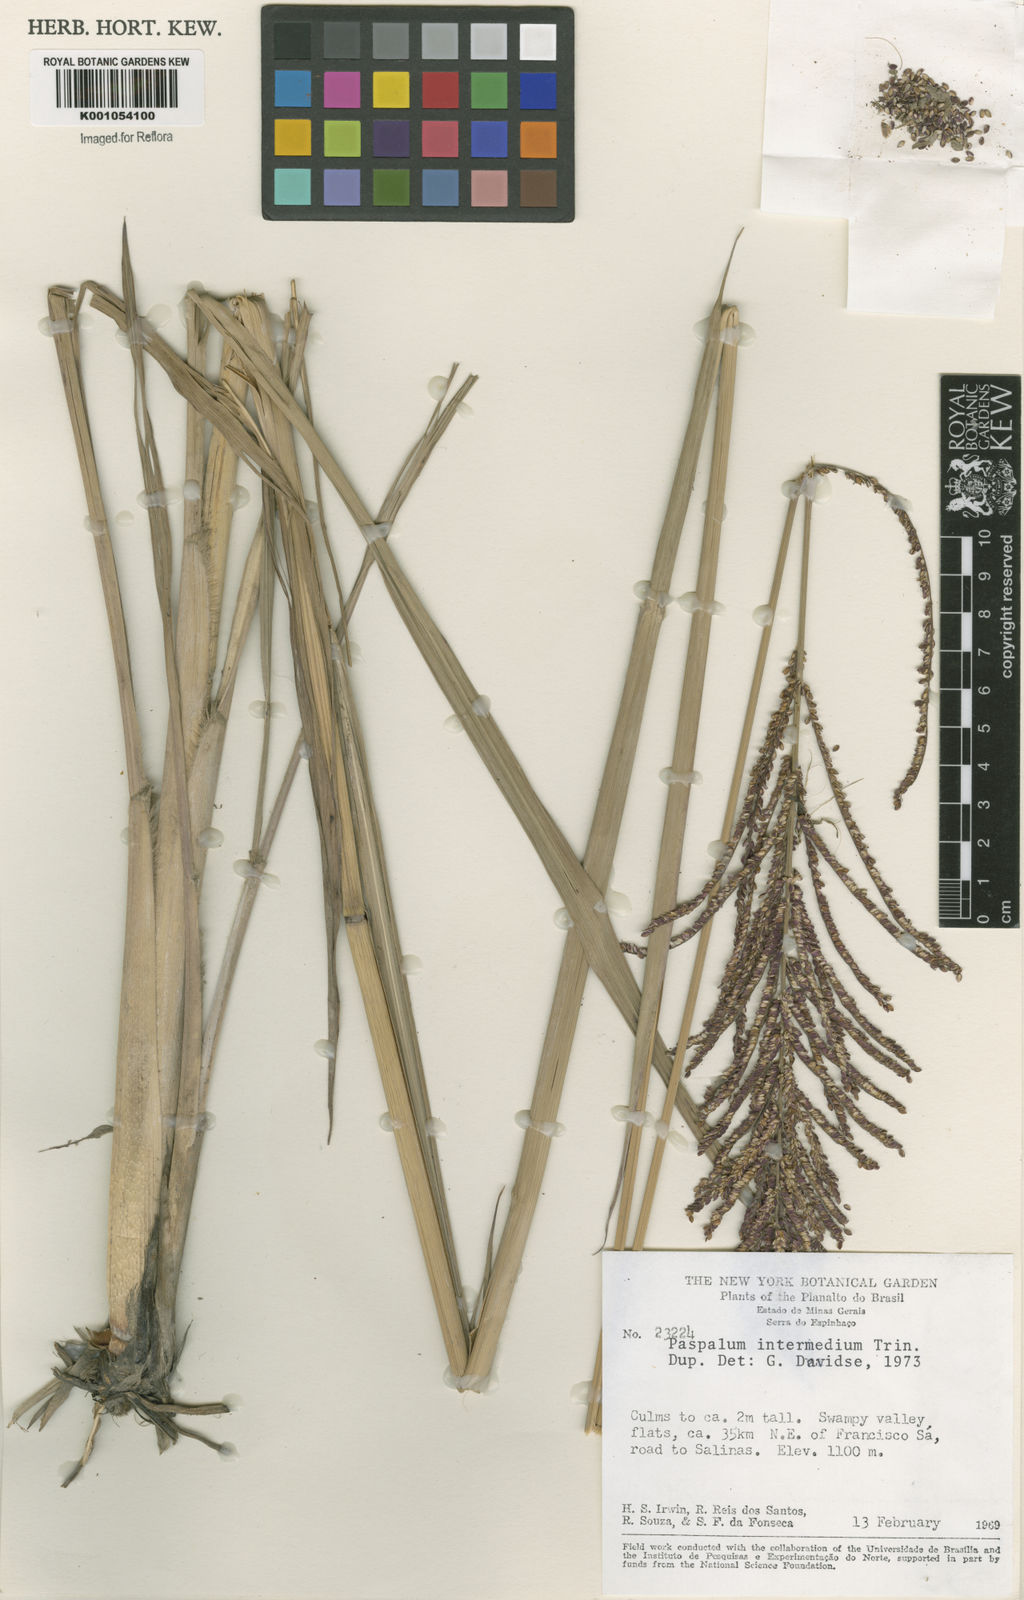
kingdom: Plantae
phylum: Tracheophyta
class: Liliopsida
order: Poales
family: Poaceae
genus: Paspalum
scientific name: Paspalum intermedium
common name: Intermediate paspalum
